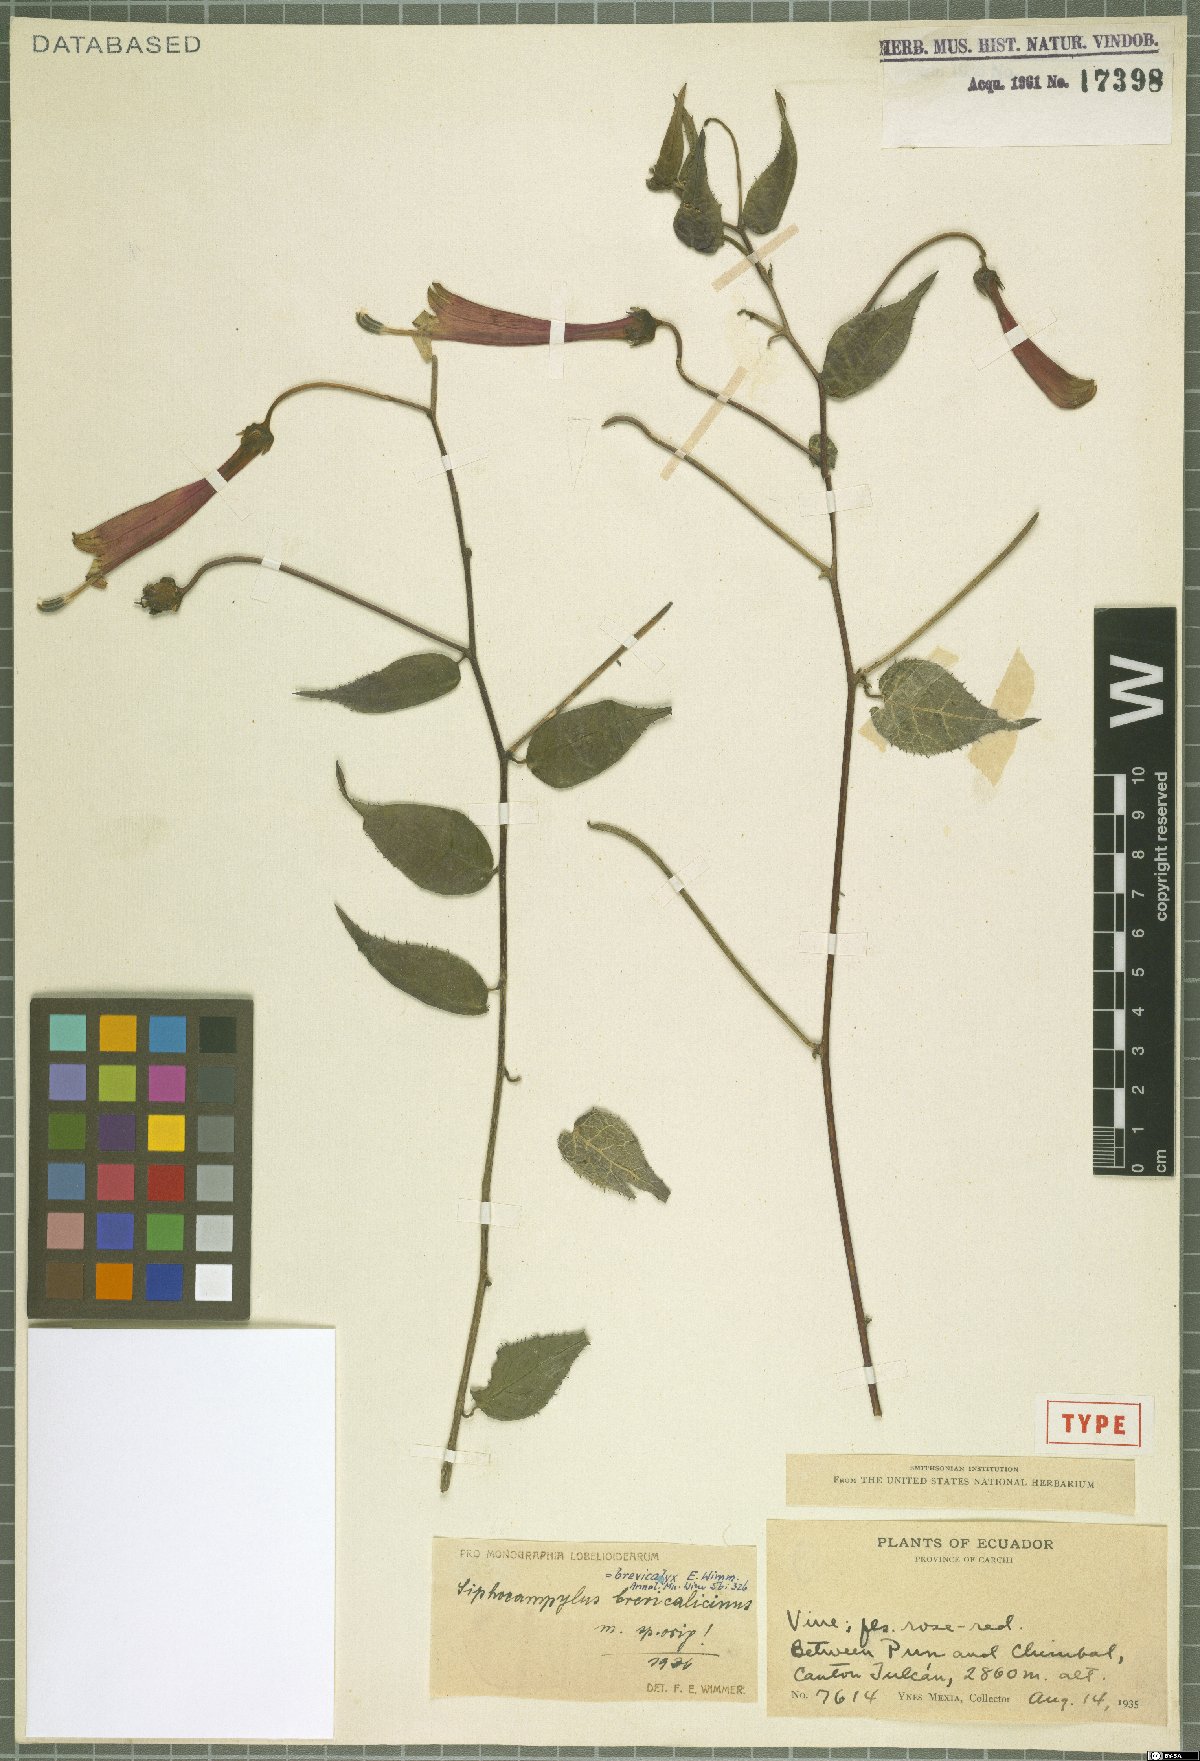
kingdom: Plantae
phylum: Tracheophyta
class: Magnoliopsida
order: Asterales
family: Campanulaceae
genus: Siphocampylus
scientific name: Siphocampylus brevicalyx
